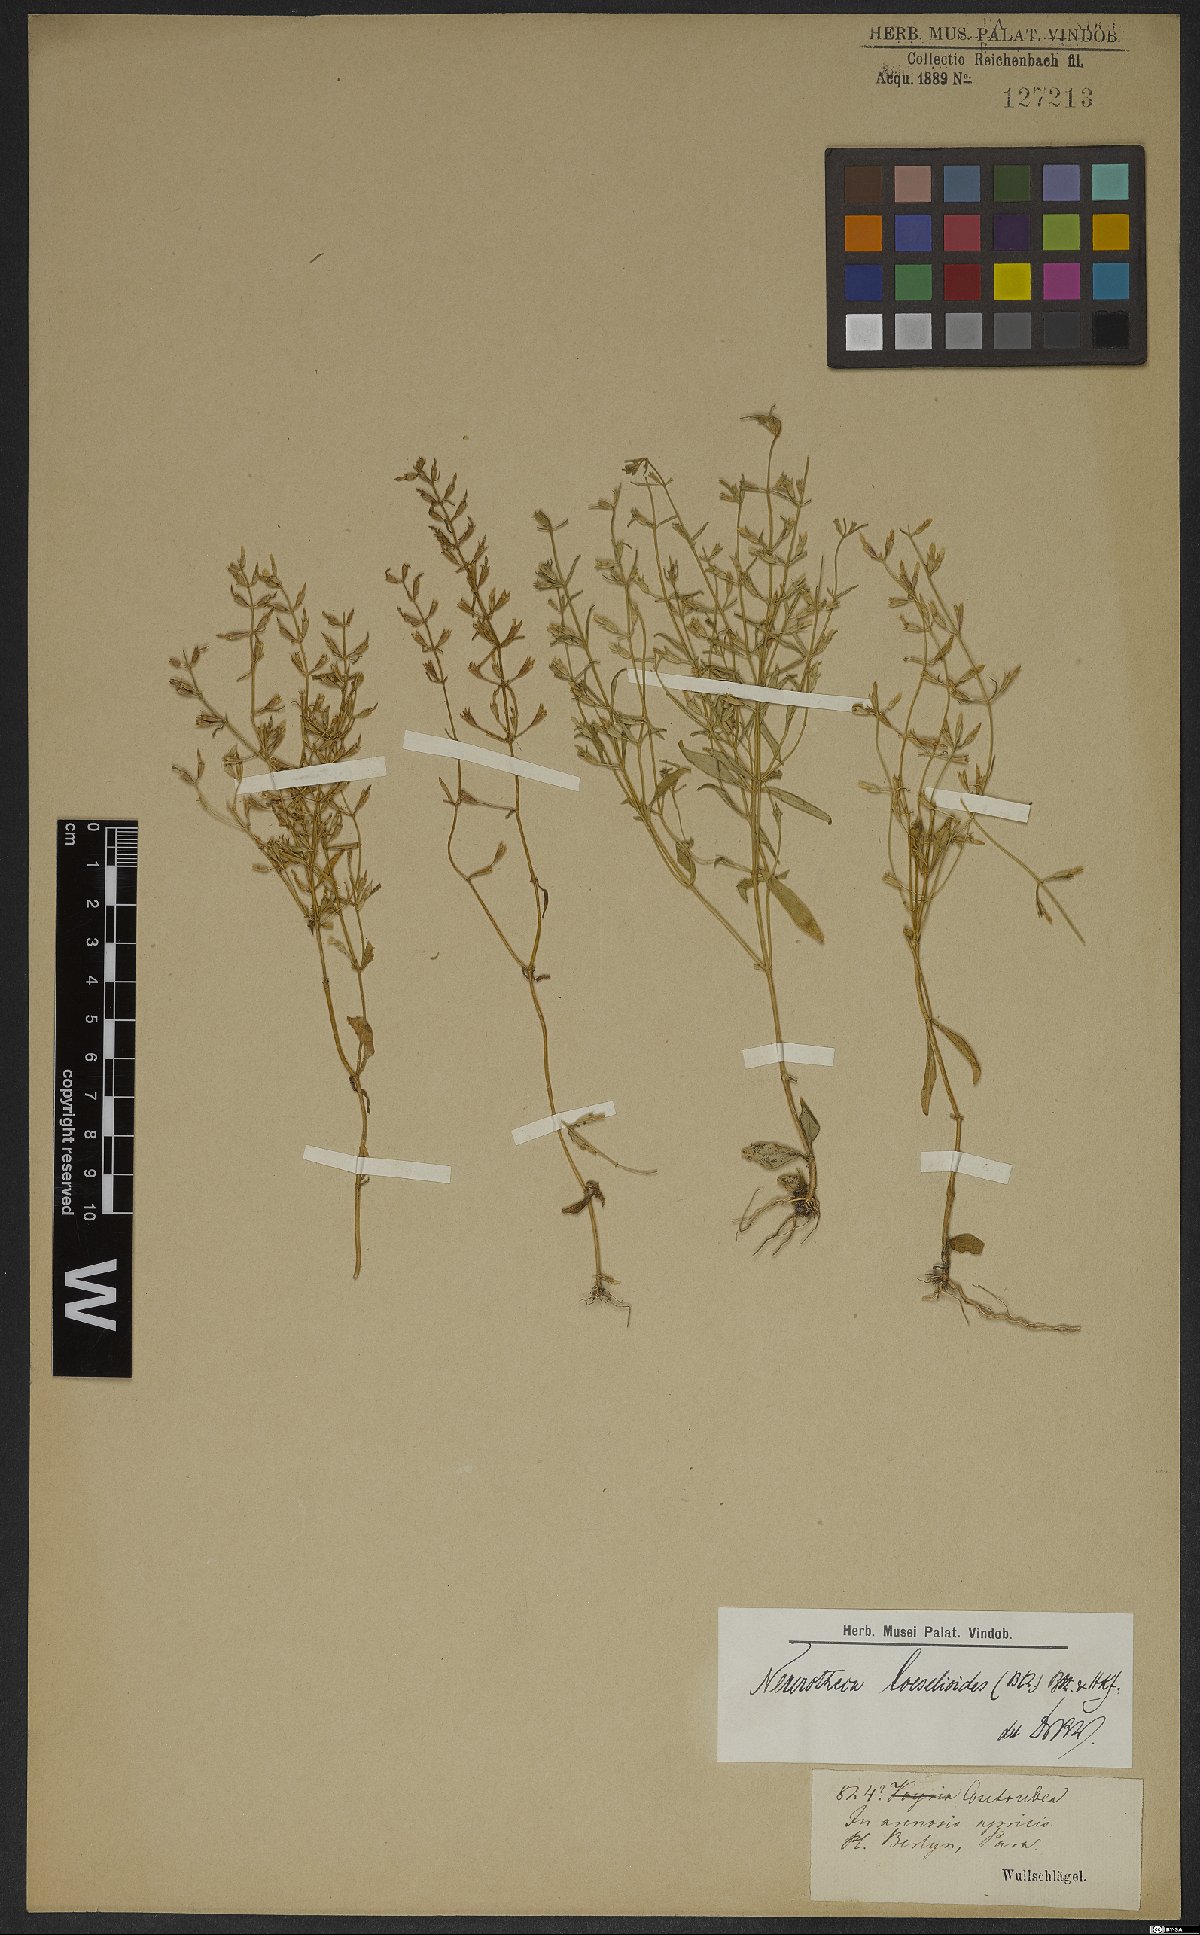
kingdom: Plantae
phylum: Tracheophyta
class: Magnoliopsida
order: Gentianales
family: Gentianaceae
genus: Neurotheca
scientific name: Neurotheca loeselioides
